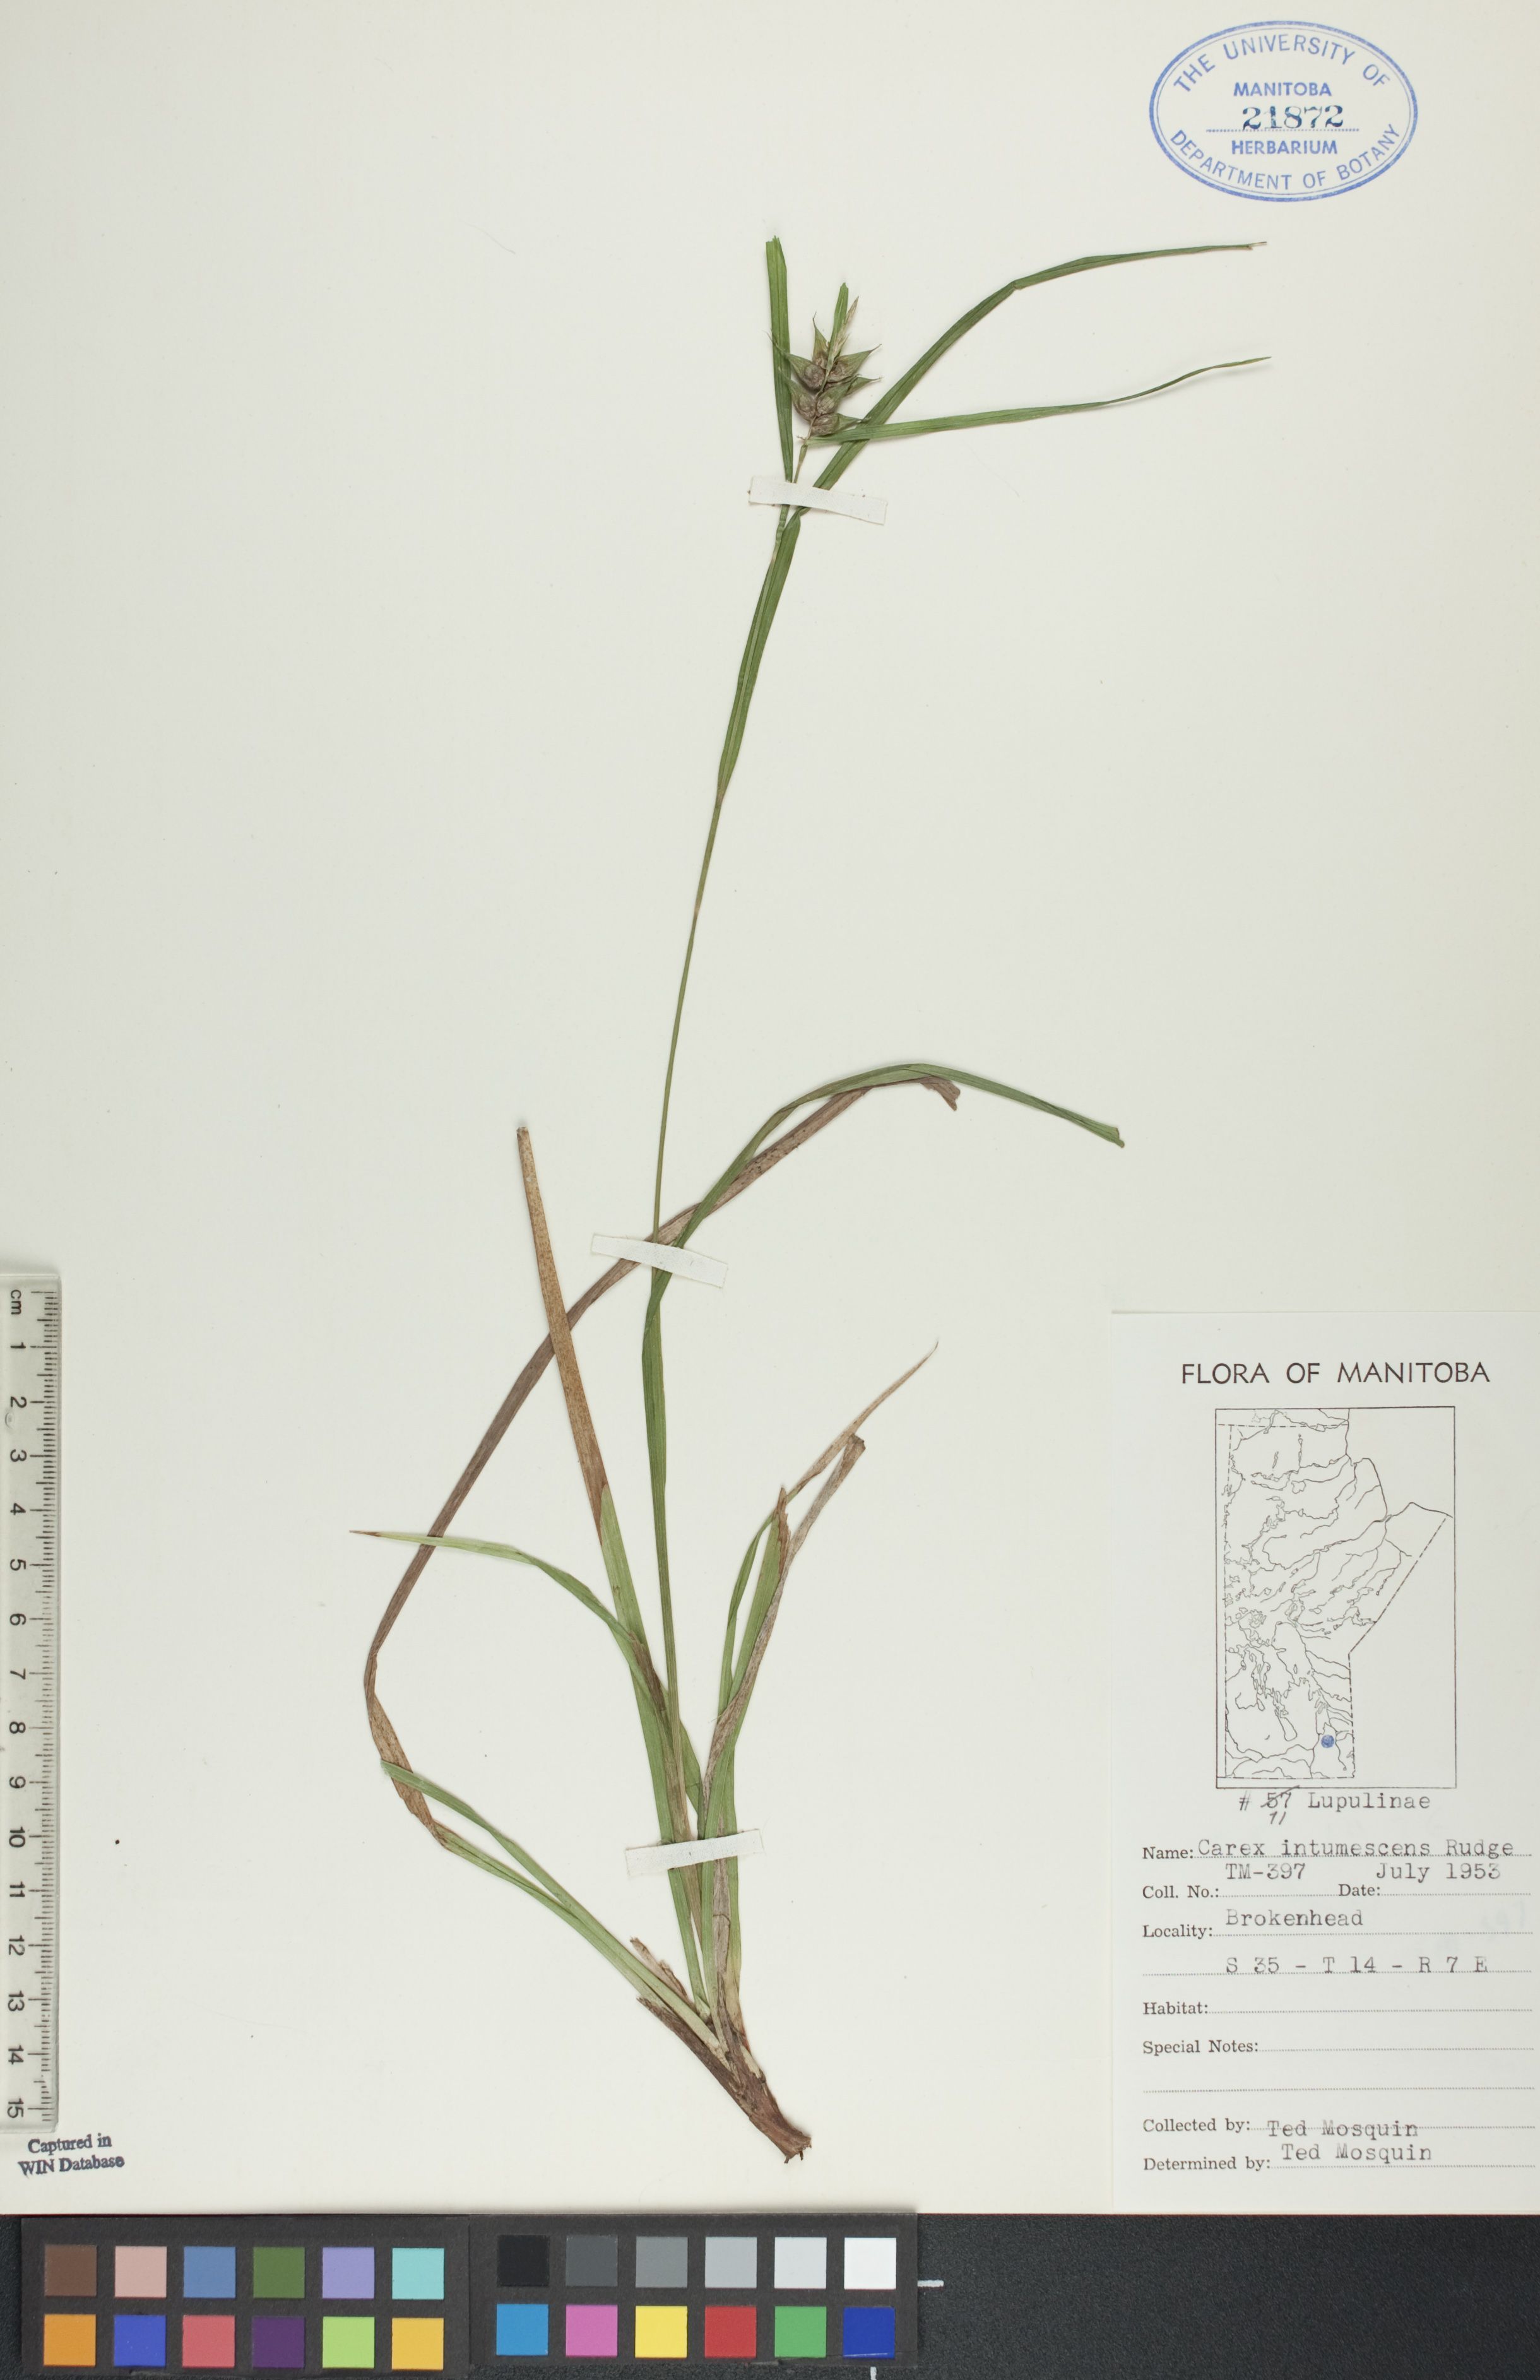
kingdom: Plantae
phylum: Tracheophyta
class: Liliopsida
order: Poales
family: Cyperaceae
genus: Carex
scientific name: Carex intumescens
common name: Greater bladder sedge
